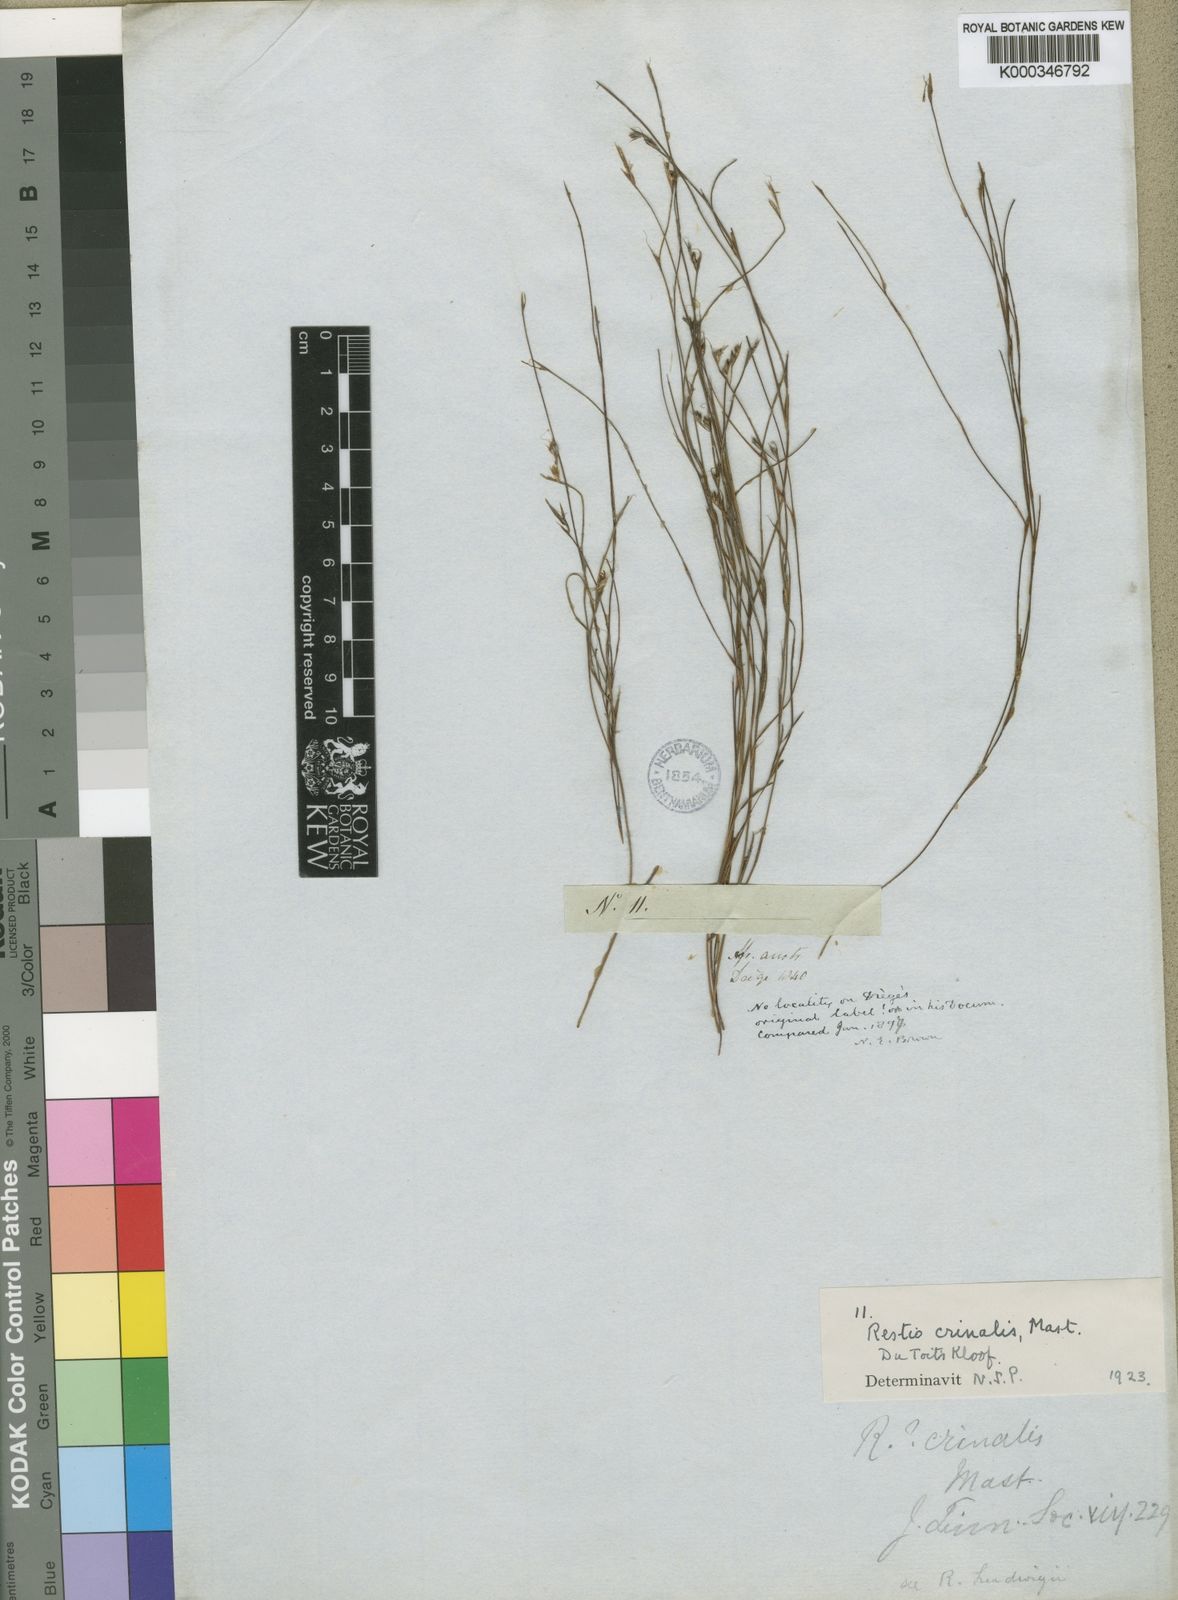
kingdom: Plantae
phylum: Tracheophyta
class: Liliopsida
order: Poales
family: Restionaceae
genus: Anthochortus
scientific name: Anthochortus crinalis
